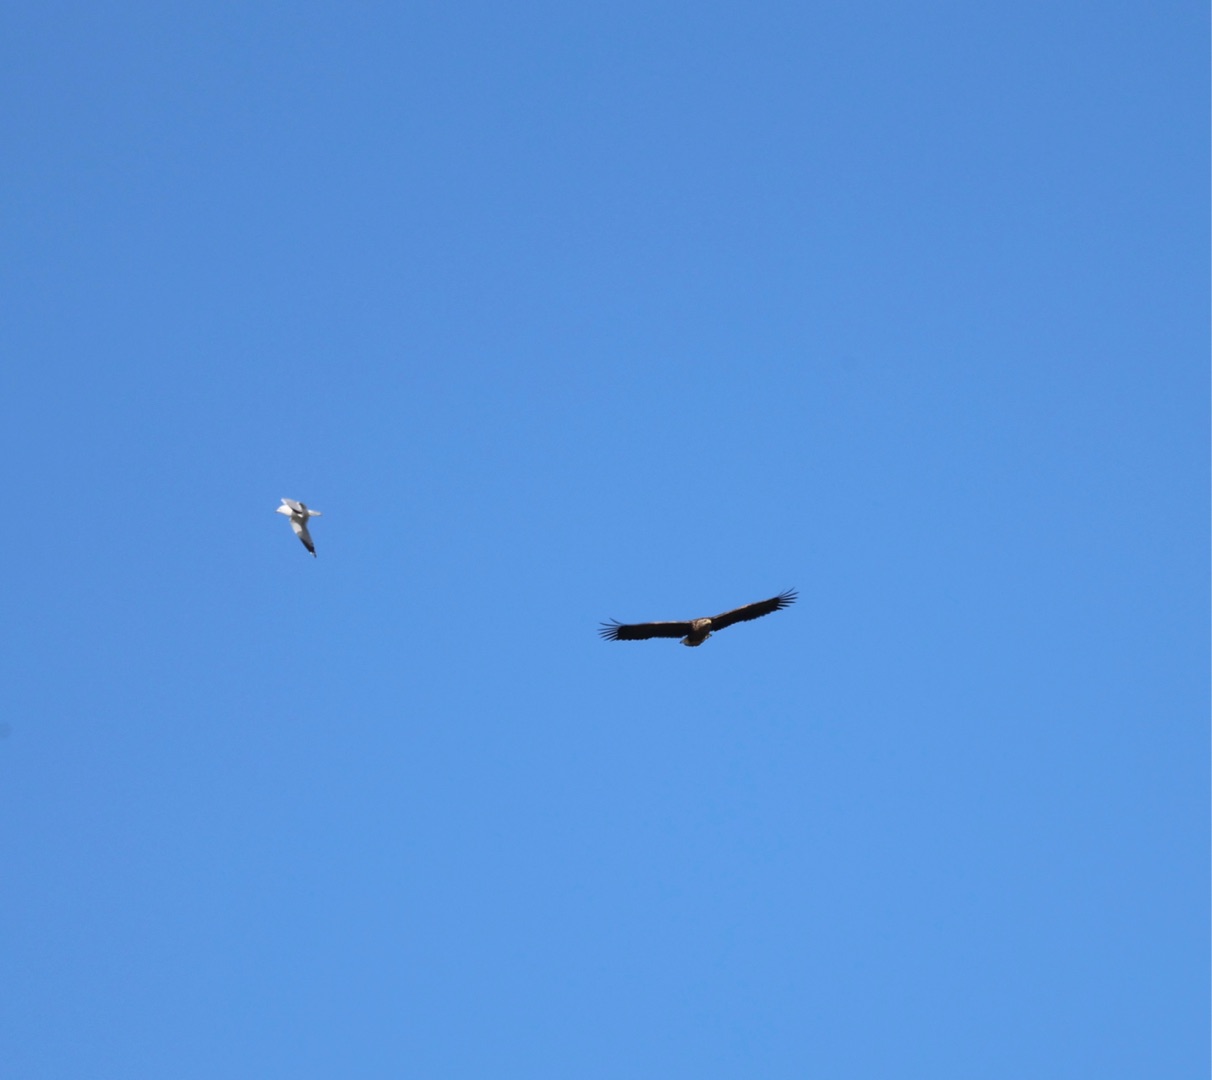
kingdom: Animalia
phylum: Chordata
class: Aves
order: Accipitriformes
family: Accipitridae
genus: Haliaeetus
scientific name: Haliaeetus albicilla
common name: Havørn
